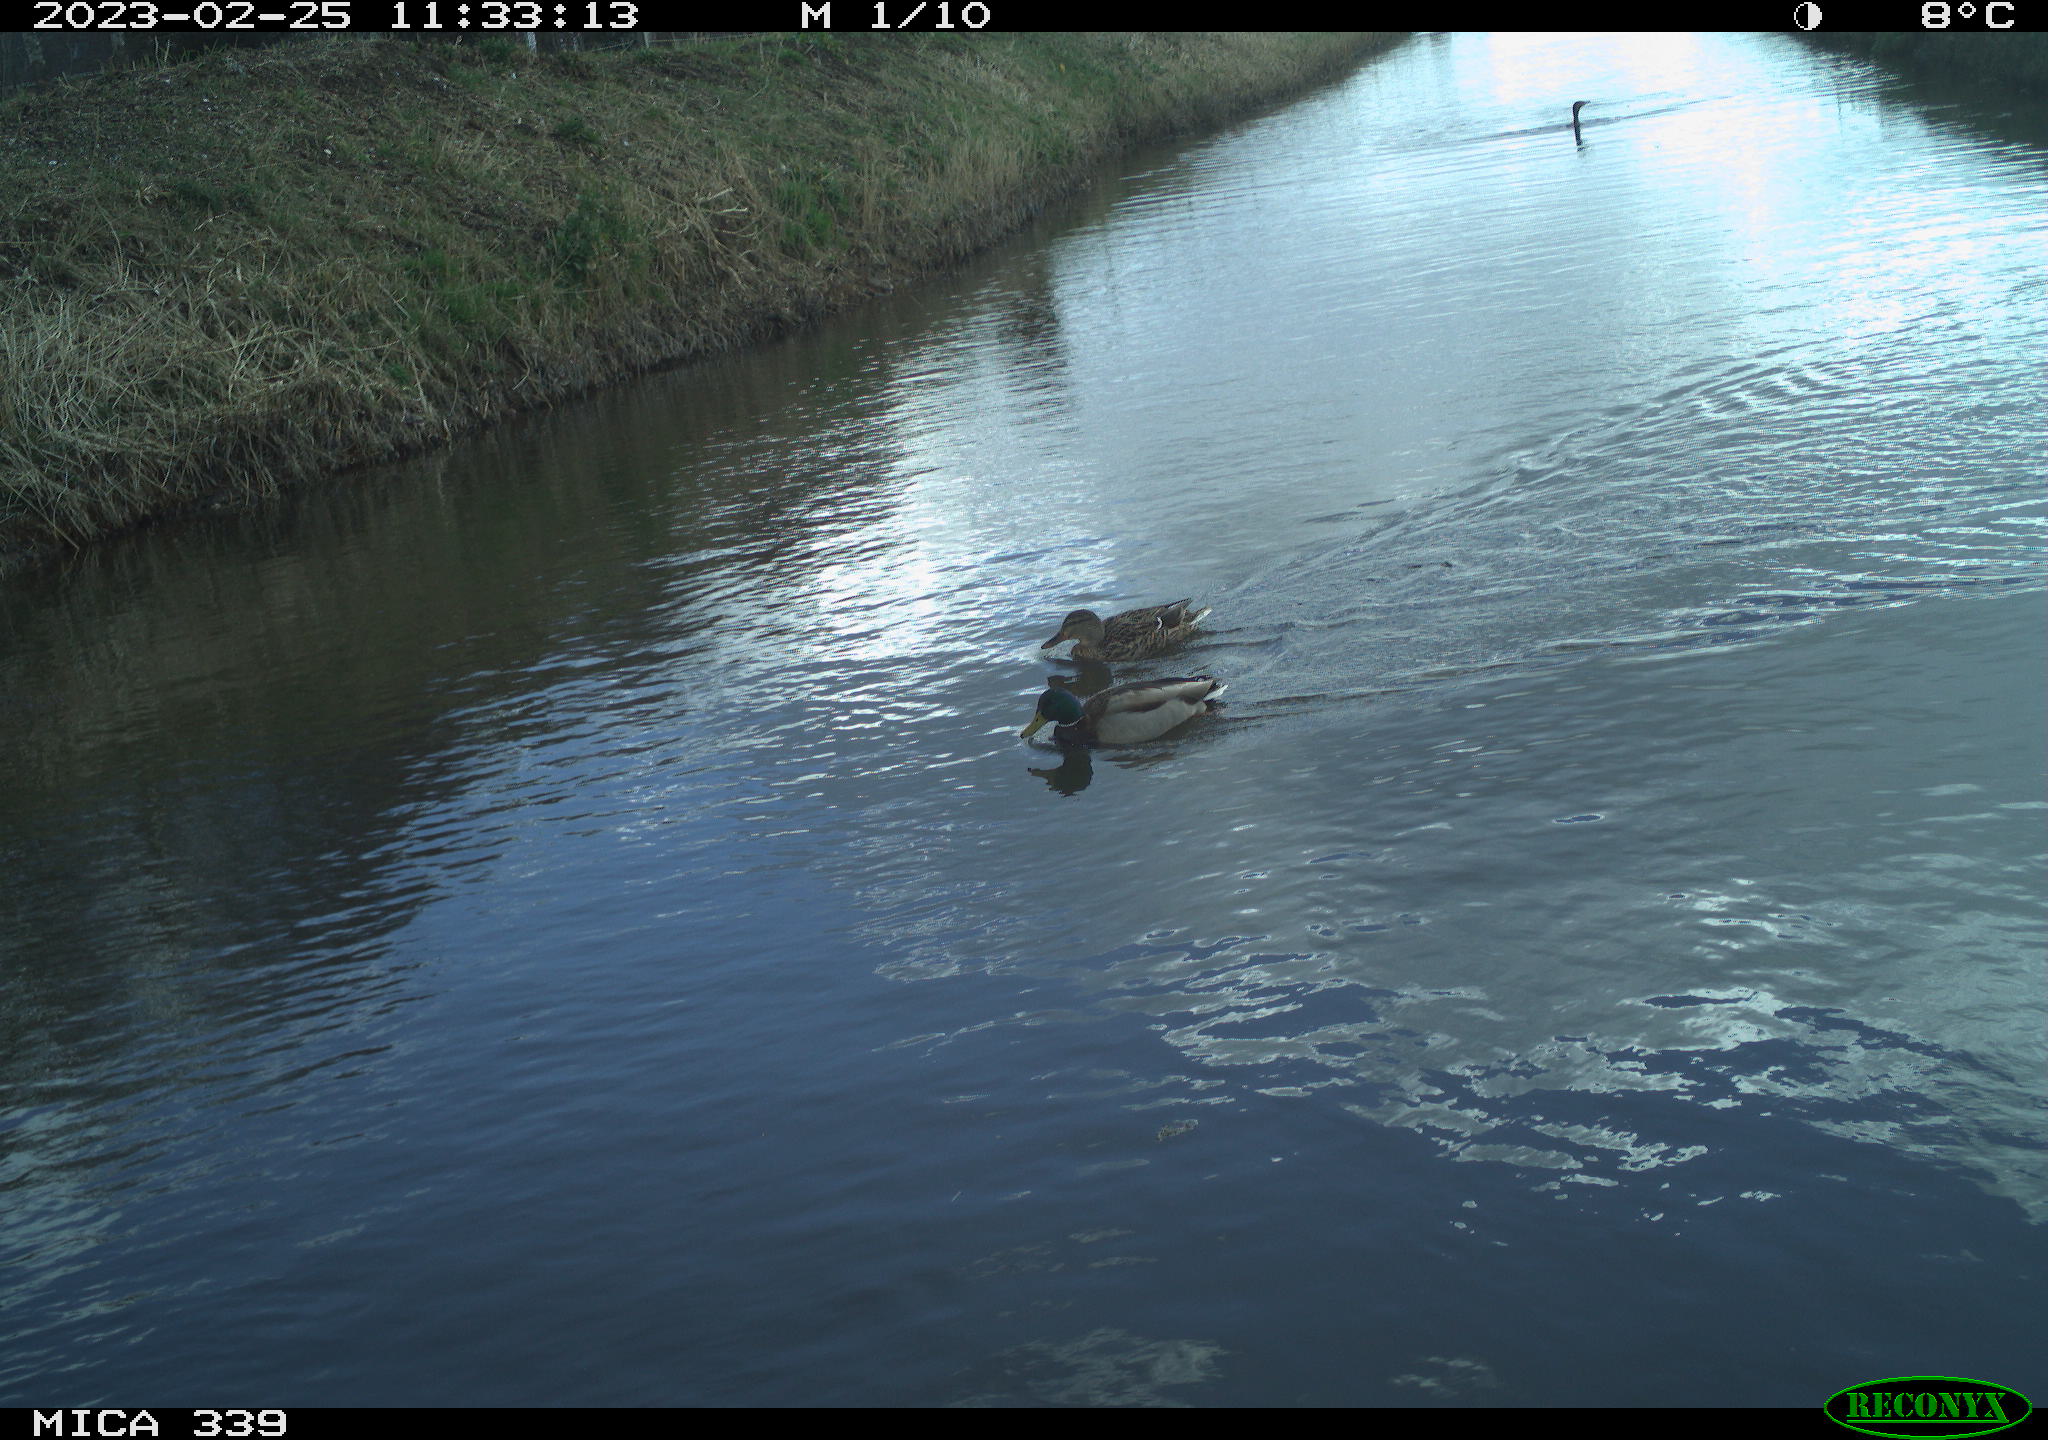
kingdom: Animalia
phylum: Chordata
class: Aves
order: Anseriformes
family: Anatidae
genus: Anas
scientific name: Anas
